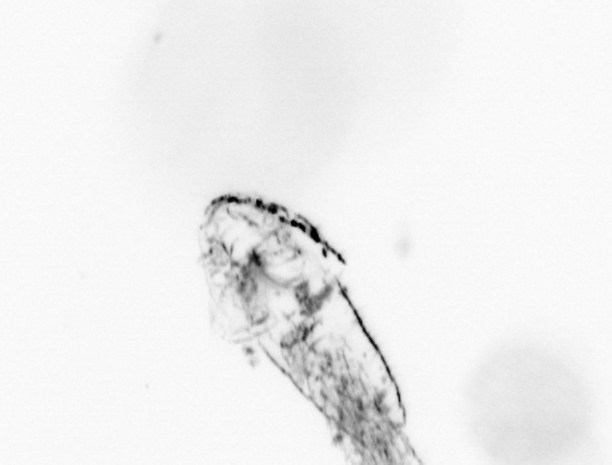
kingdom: Animalia
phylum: Arthropoda
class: Copepoda
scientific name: Copepoda
